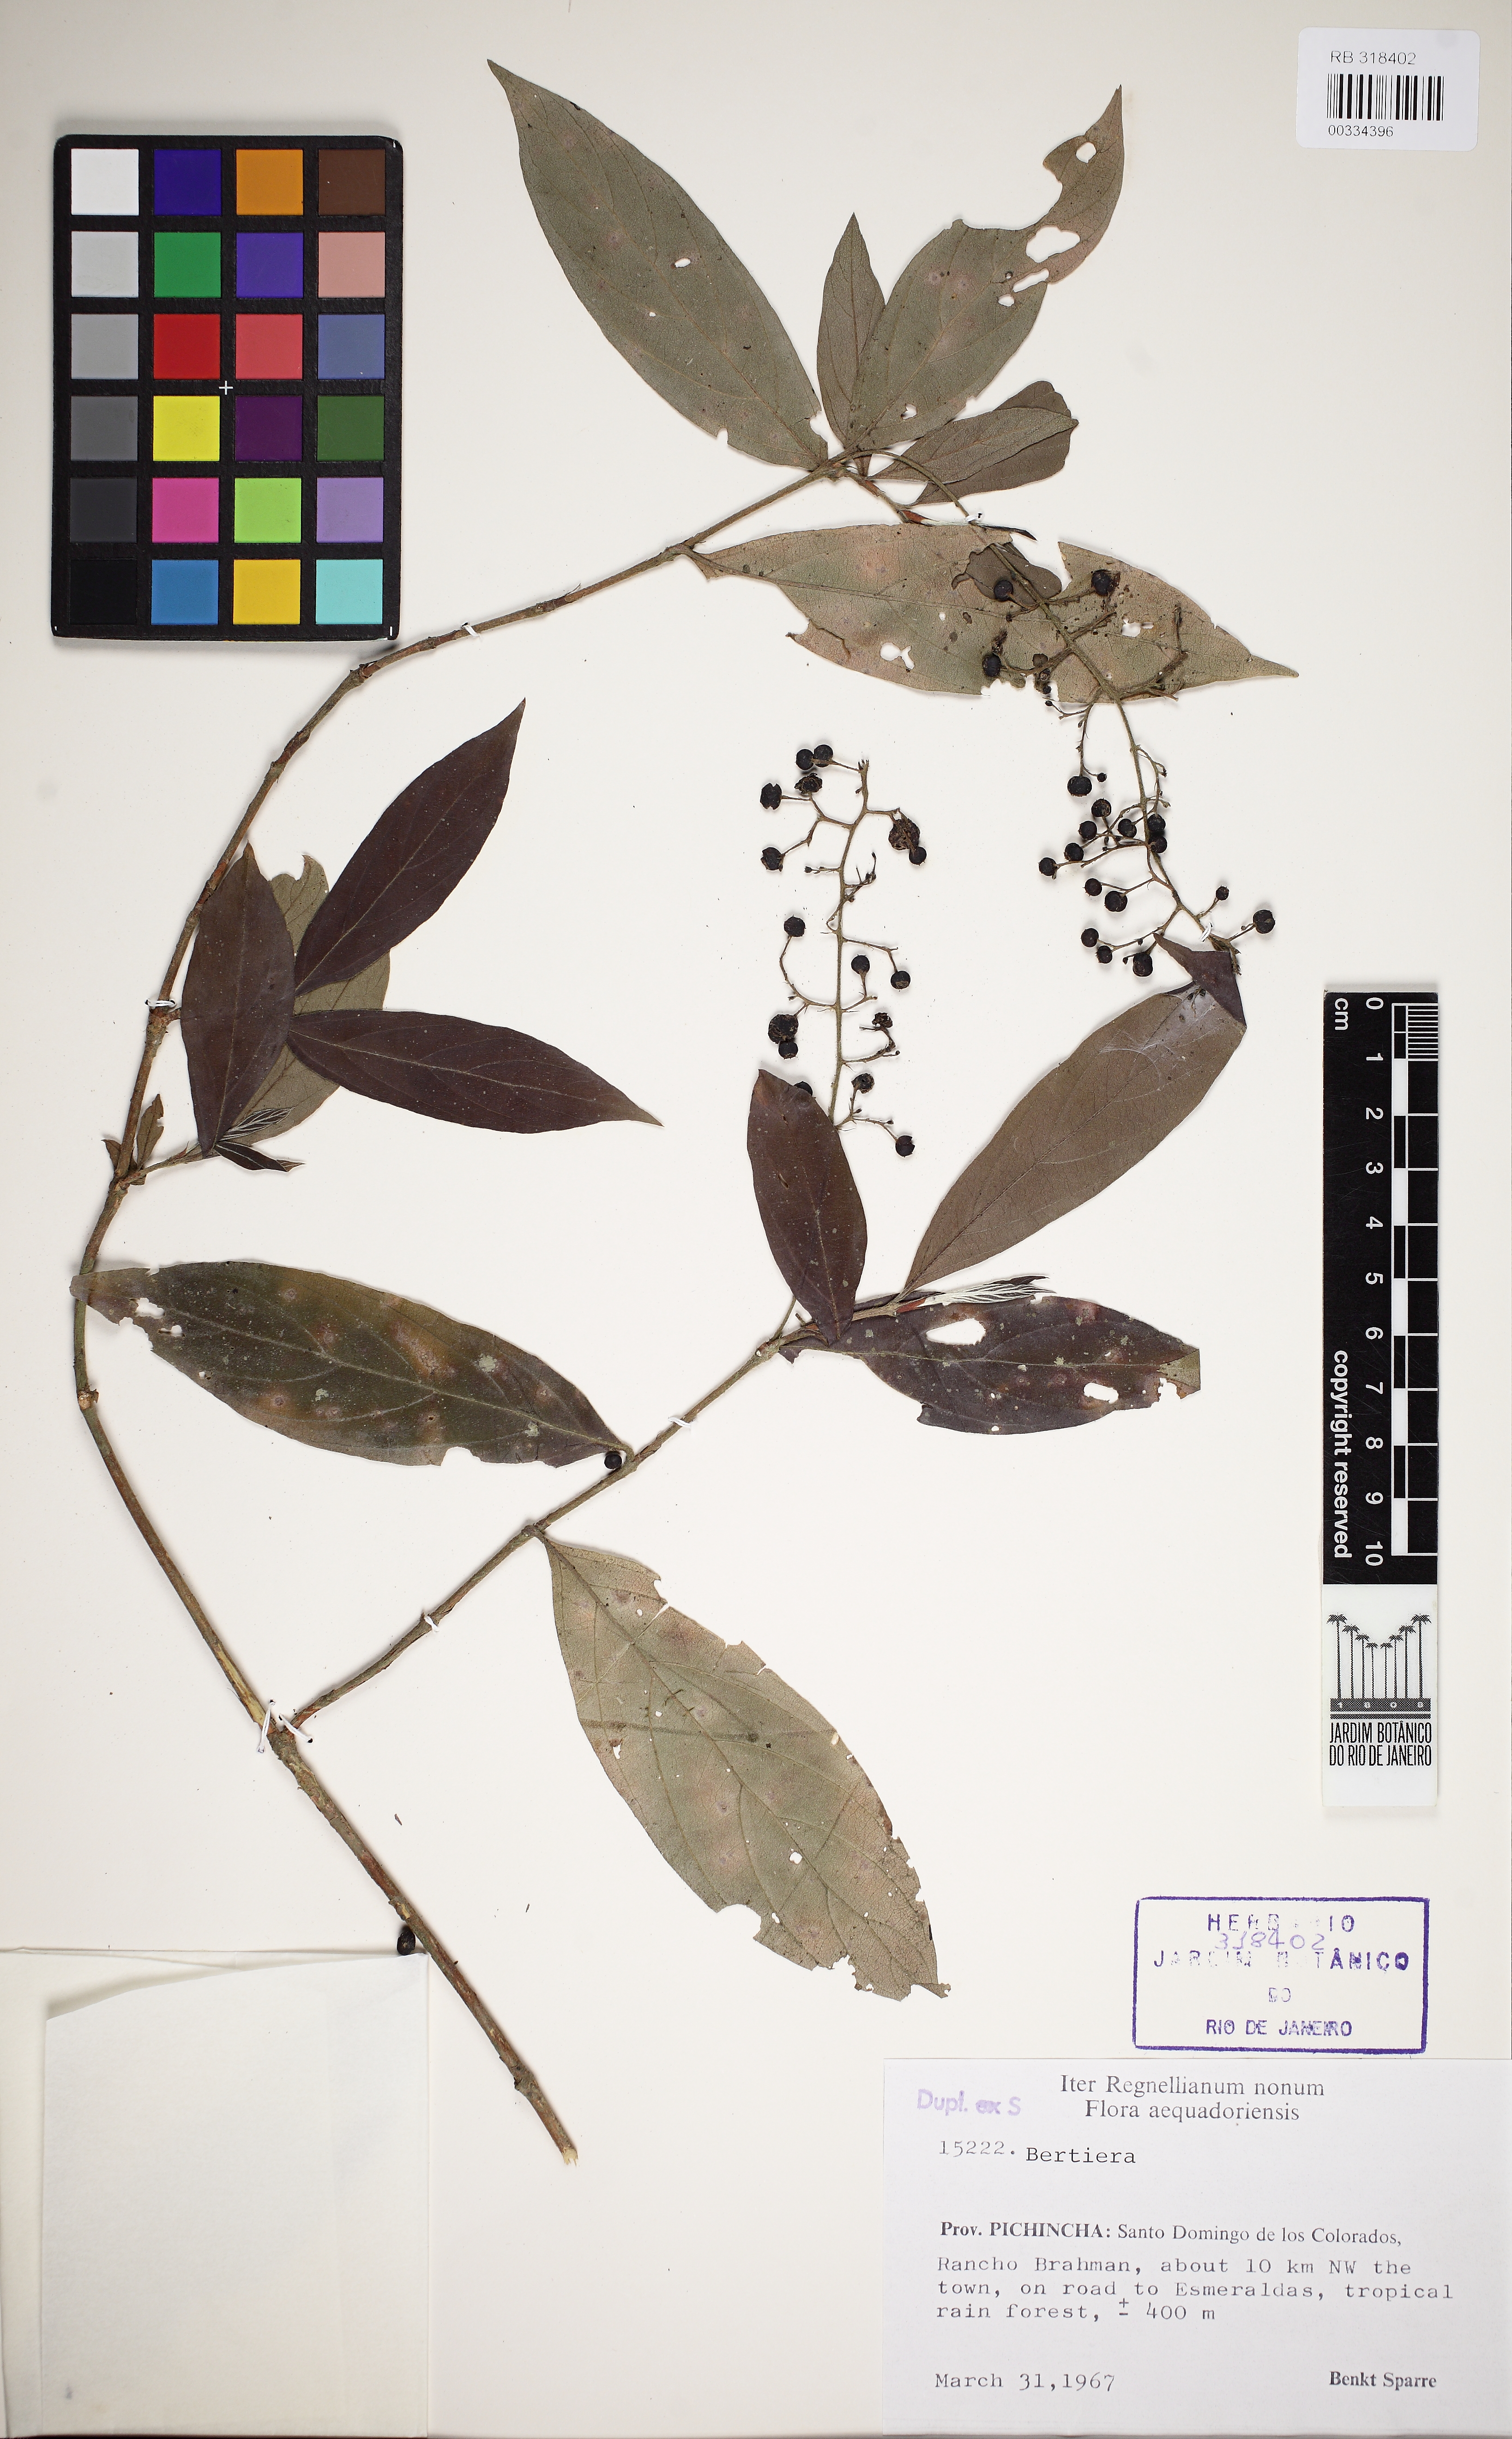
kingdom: Plantae
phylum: Tracheophyta
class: Magnoliopsida
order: Gentianales
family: Rubiaceae
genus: Bertiera
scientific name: Bertiera
